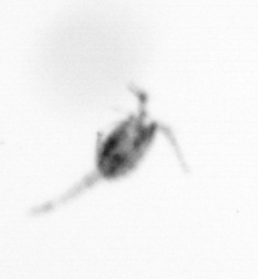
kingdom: Animalia
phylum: Arthropoda
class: Copepoda
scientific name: Copepoda
